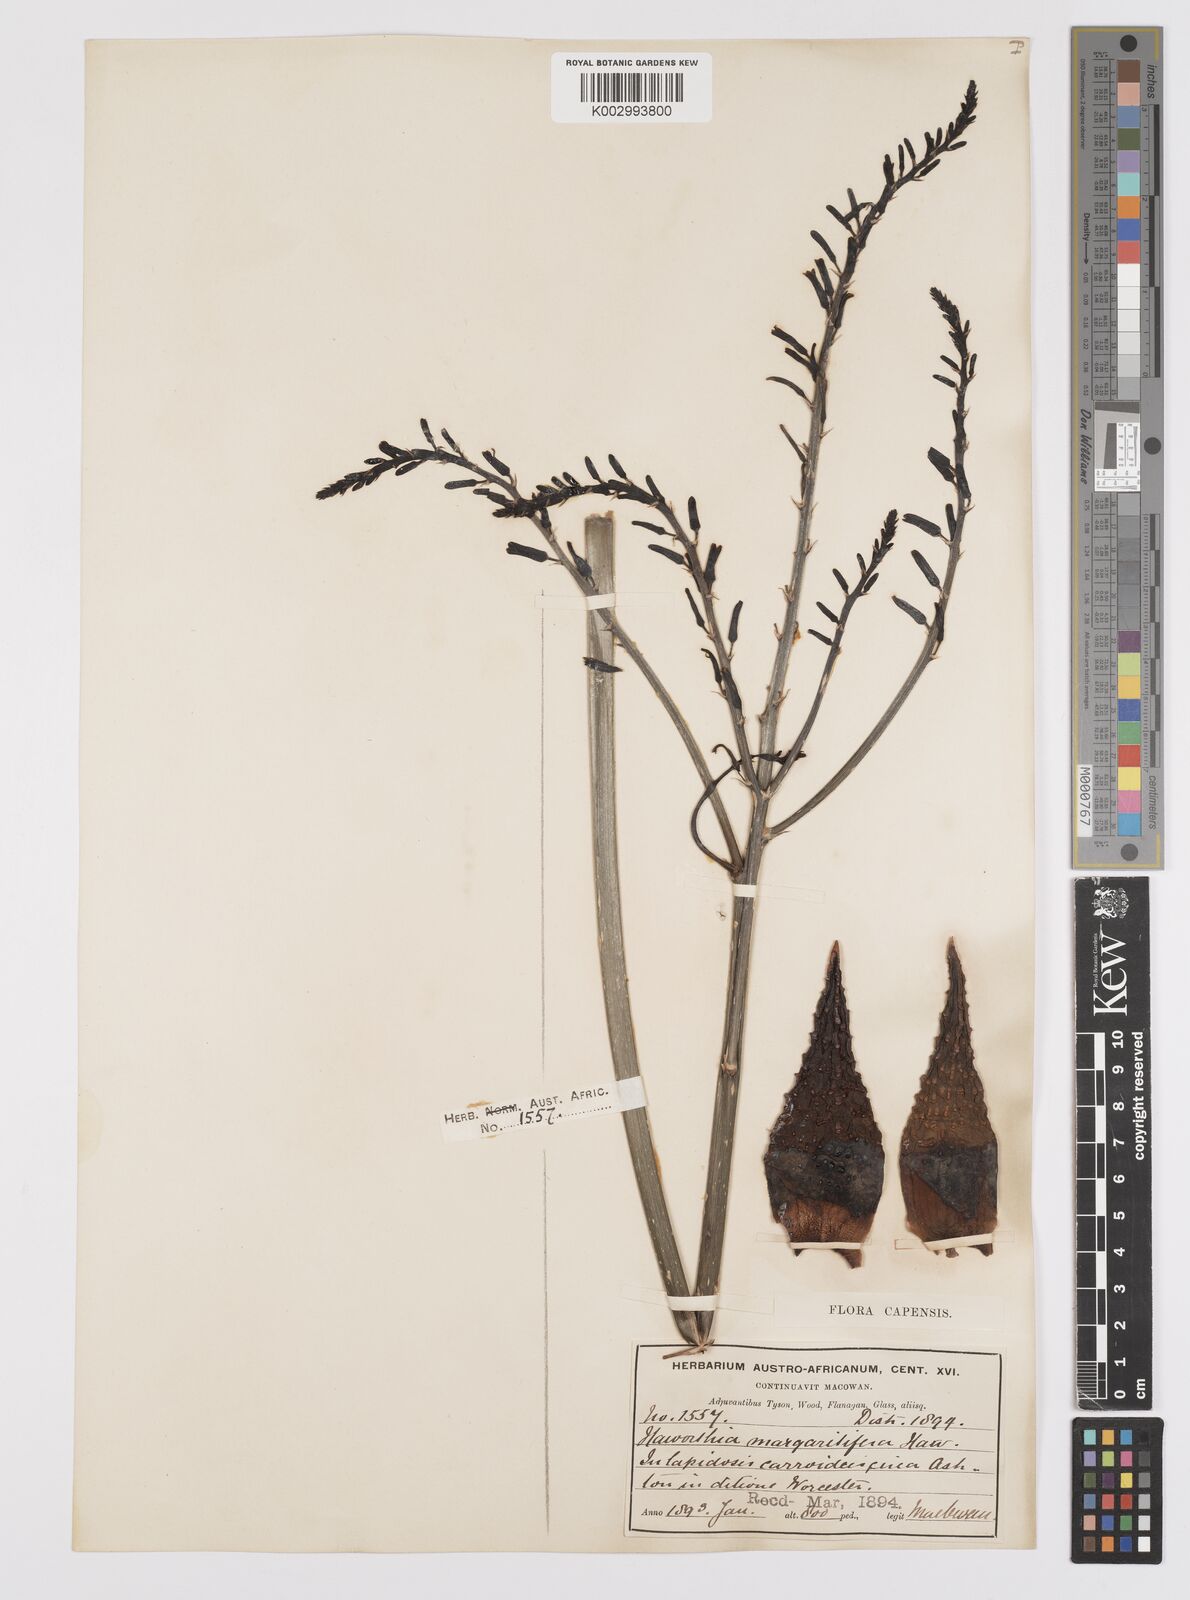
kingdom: Plantae
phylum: Tracheophyta
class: Liliopsida
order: Asparagales
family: Asphodelaceae
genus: Tulista
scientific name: Tulista pumila
